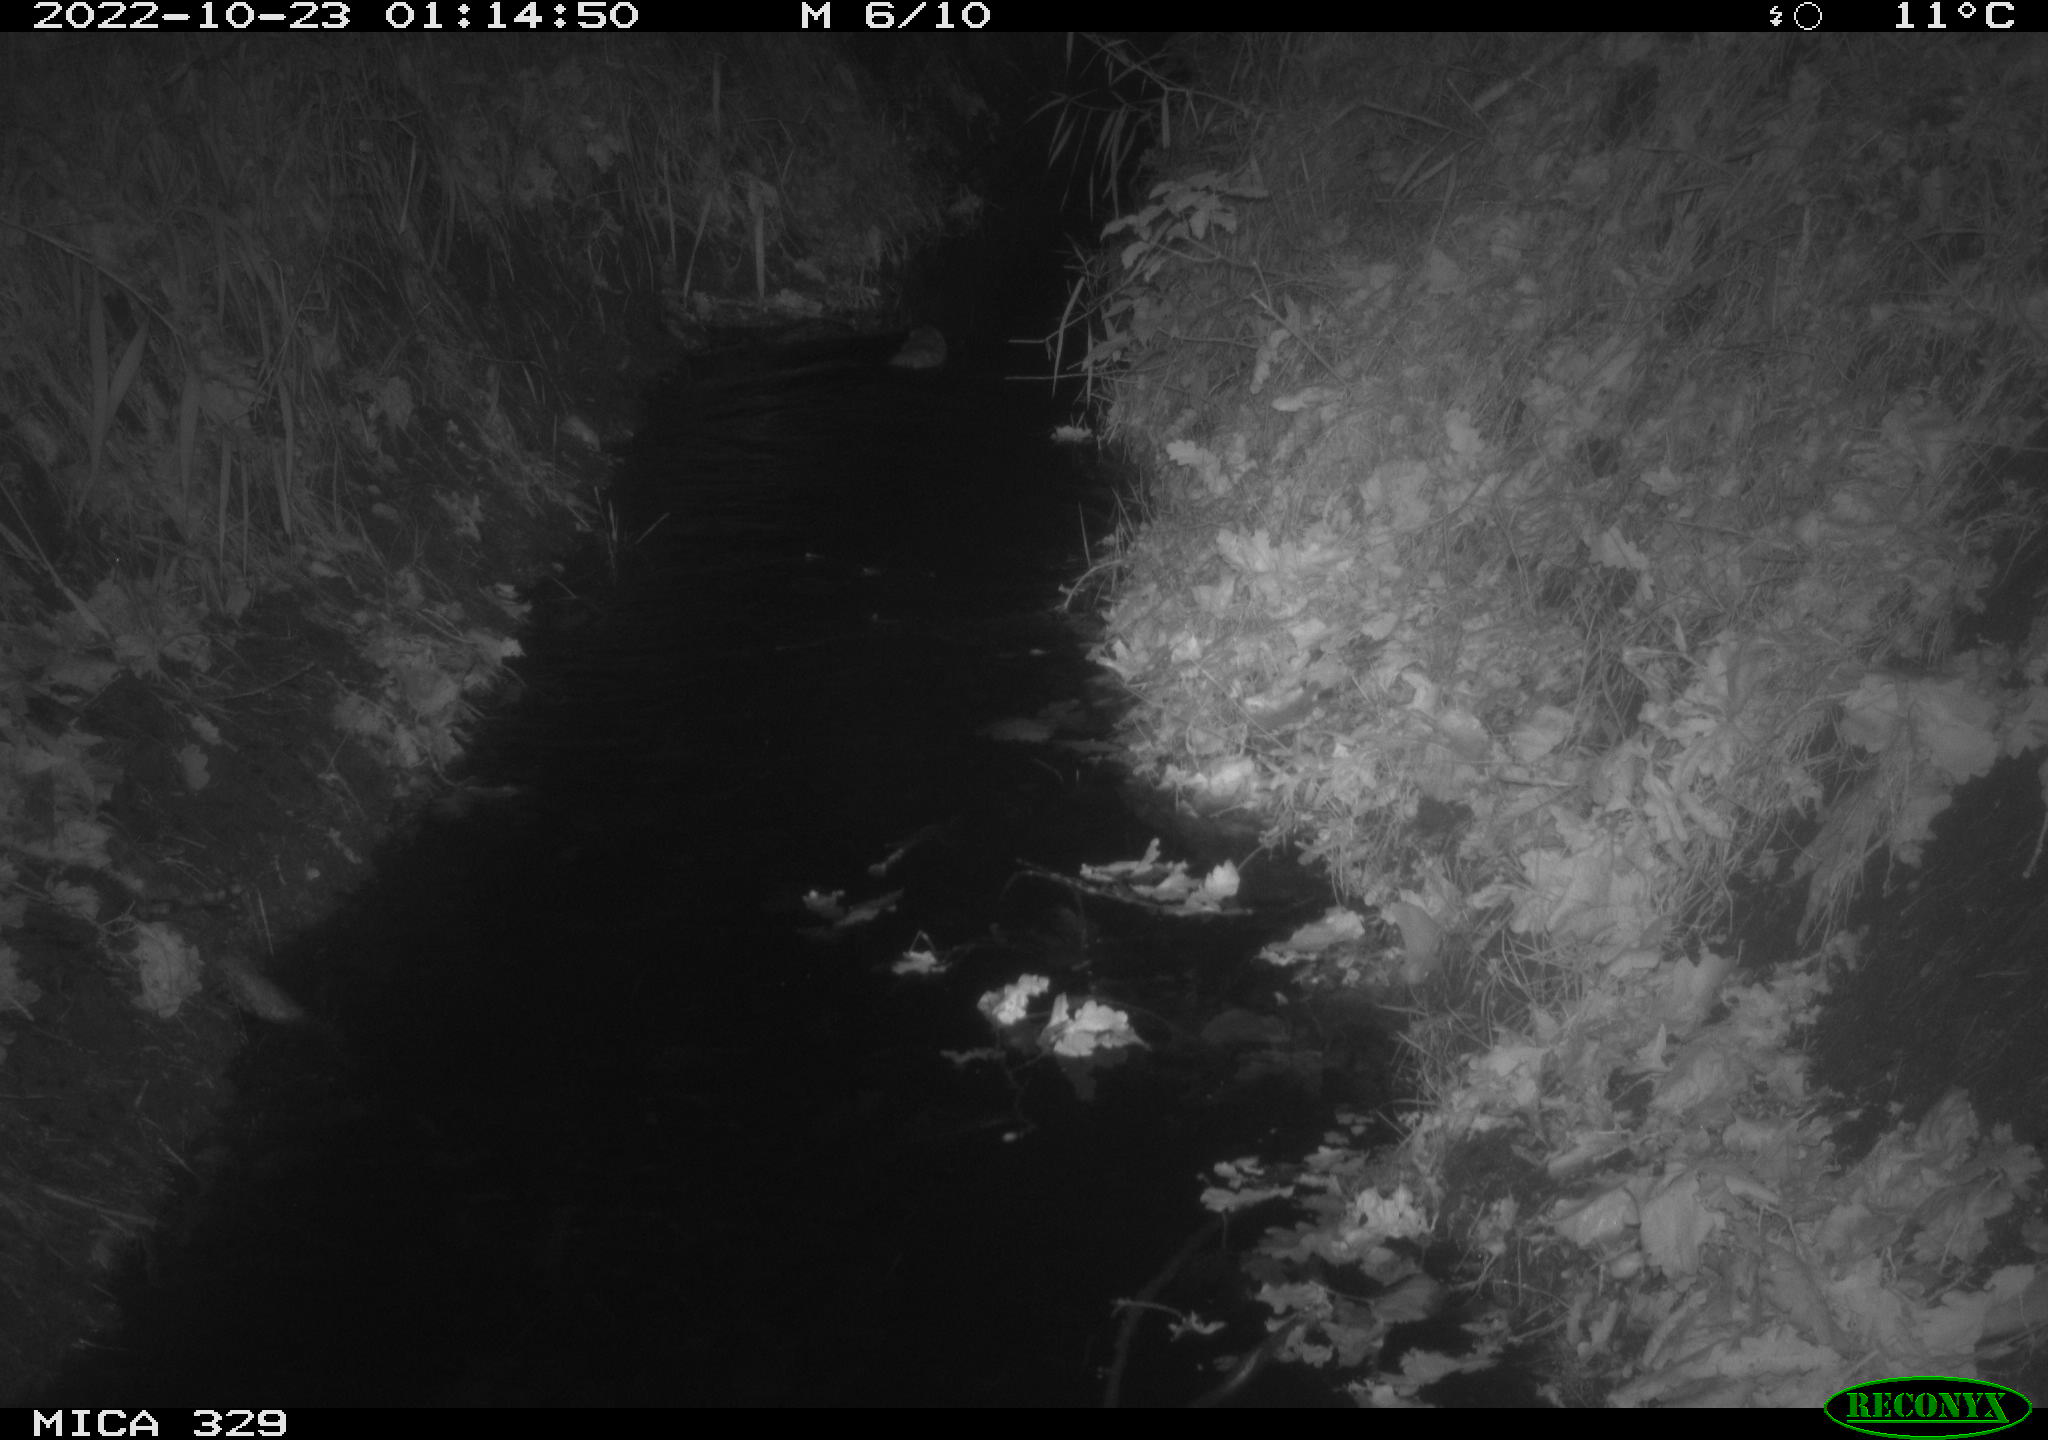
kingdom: Animalia
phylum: Chordata
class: Mammalia
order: Rodentia
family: Cricetidae
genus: Ondatra
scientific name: Ondatra zibethicus
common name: Muskrat
